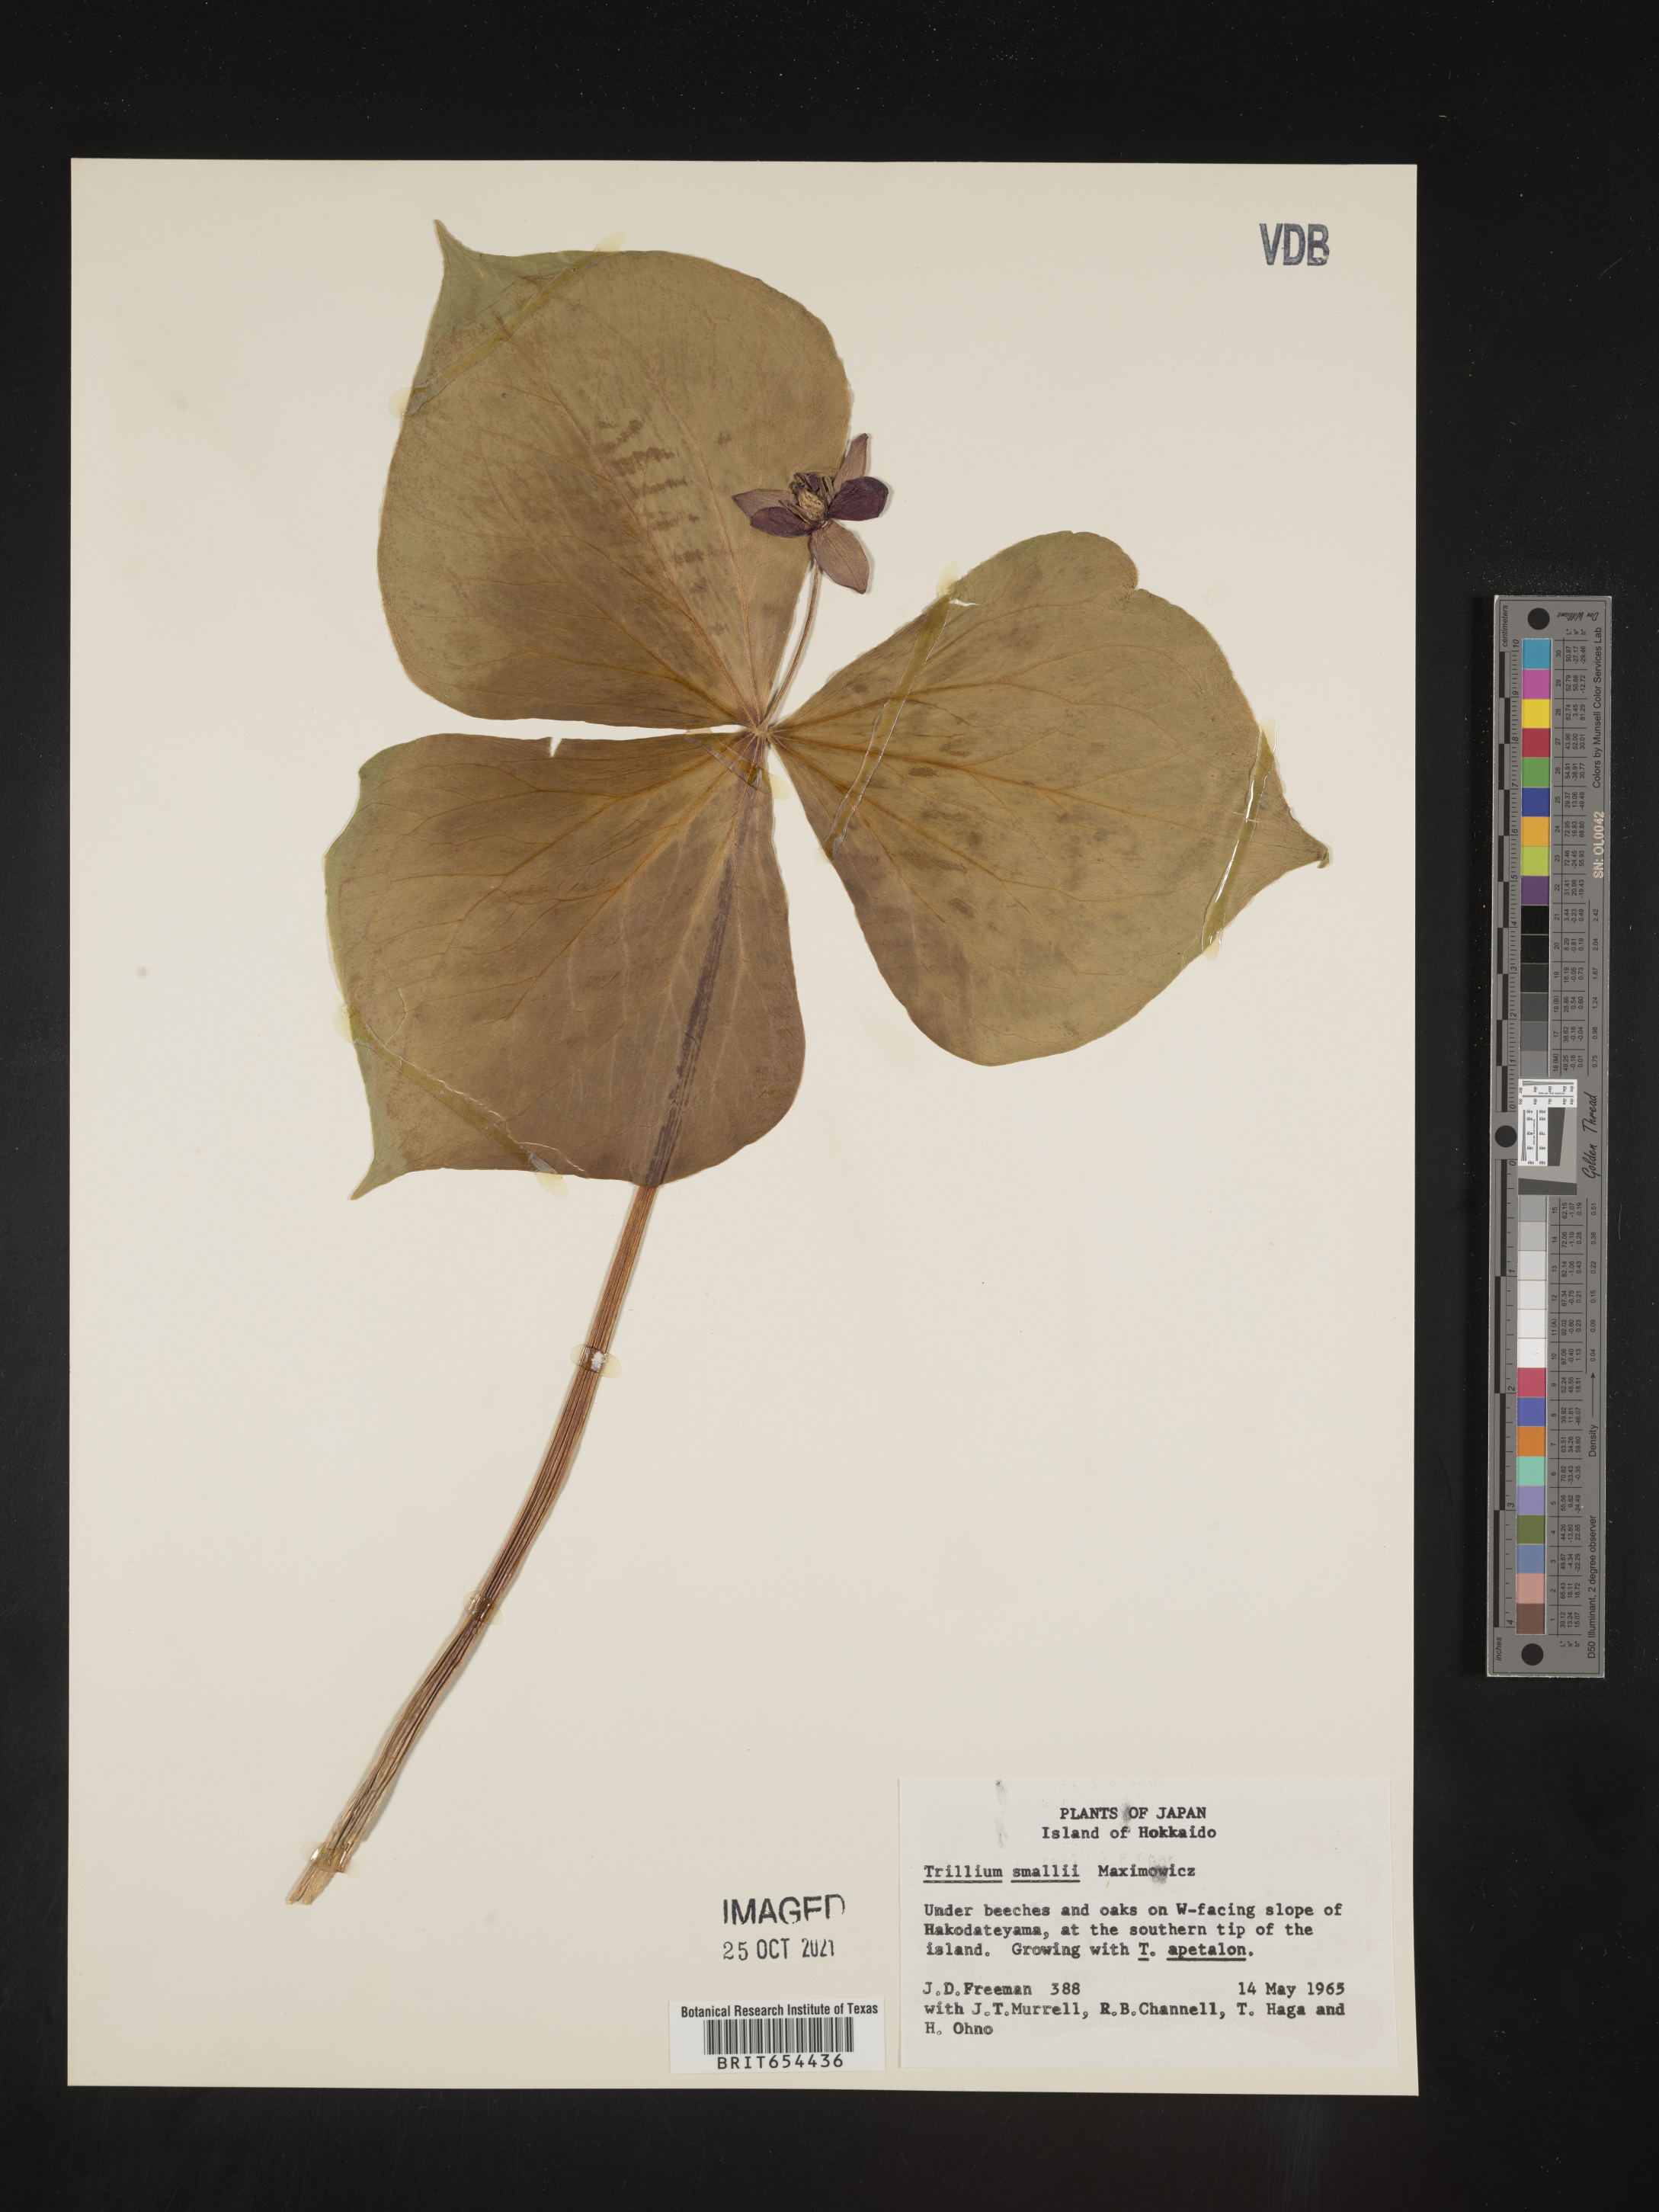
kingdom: Plantae
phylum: Tracheophyta
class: Liliopsida
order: Liliales
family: Melanthiaceae
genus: Trillium
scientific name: Trillium
